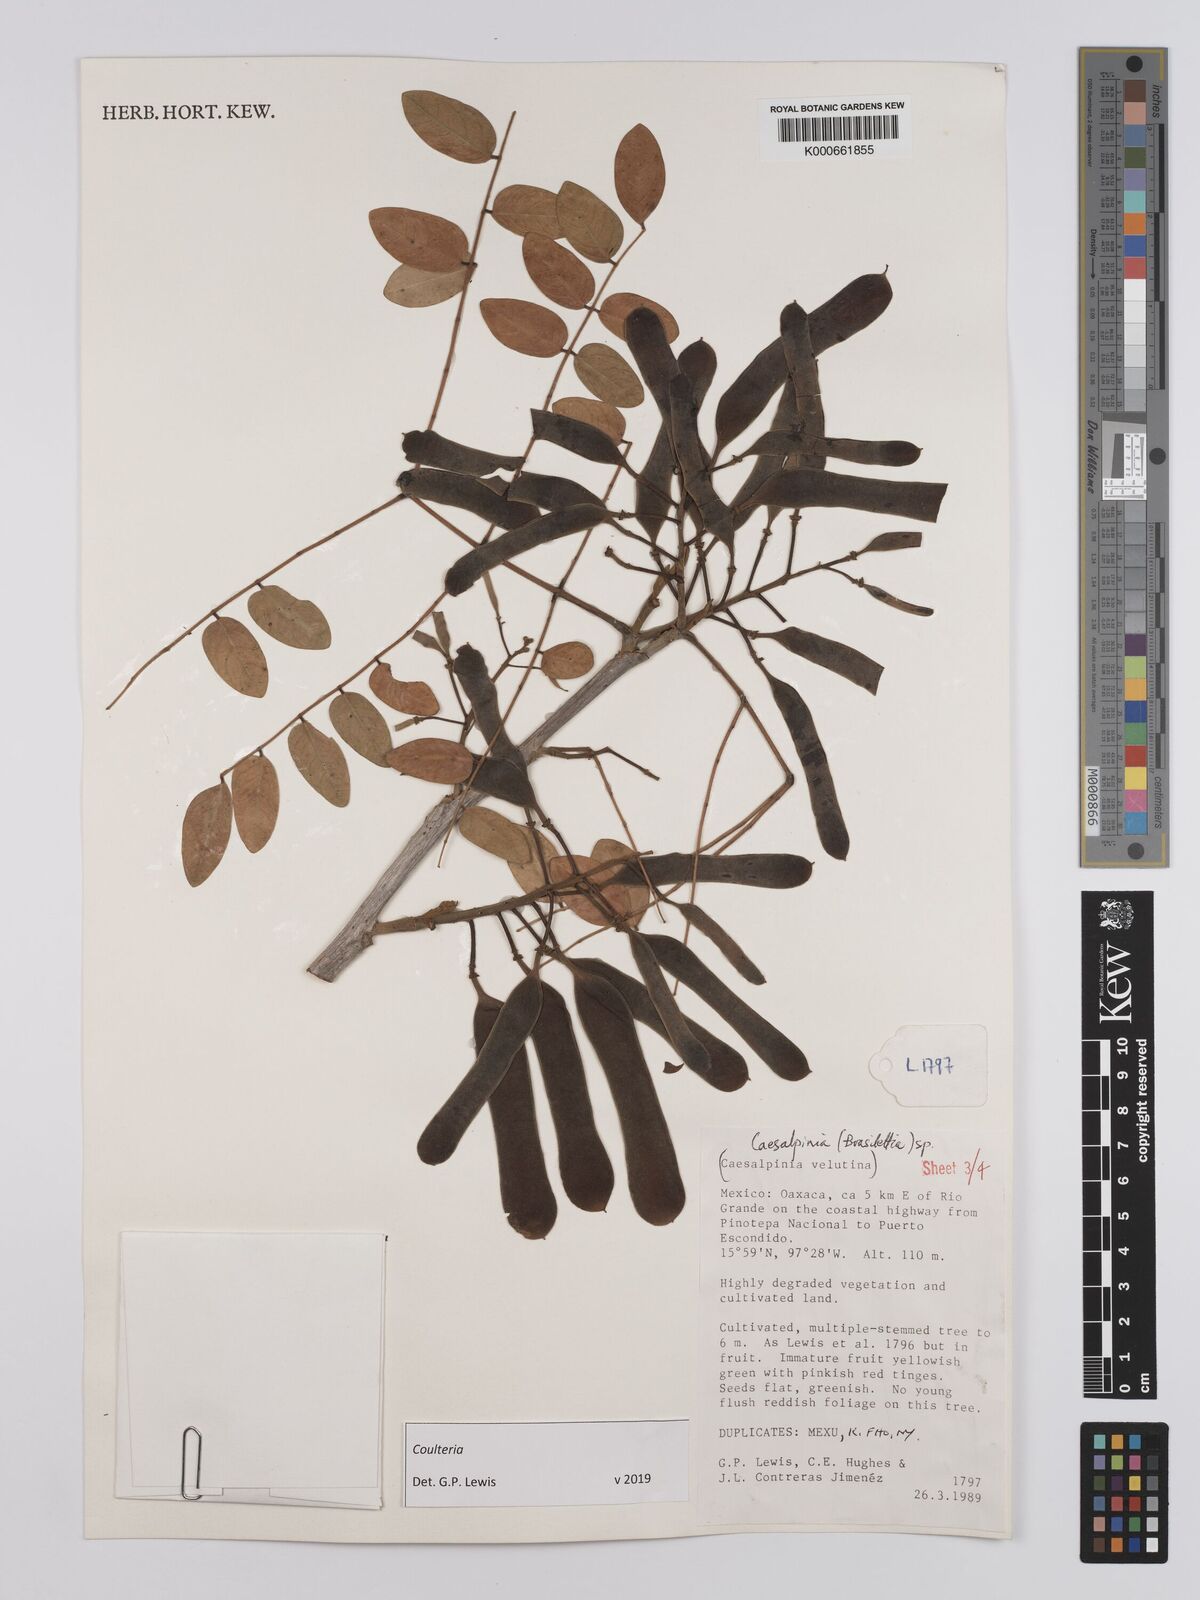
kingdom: Plantae
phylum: Tracheophyta
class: Magnoliopsida
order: Fabales
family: Fabaceae
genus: Coulteria
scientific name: Coulteria
